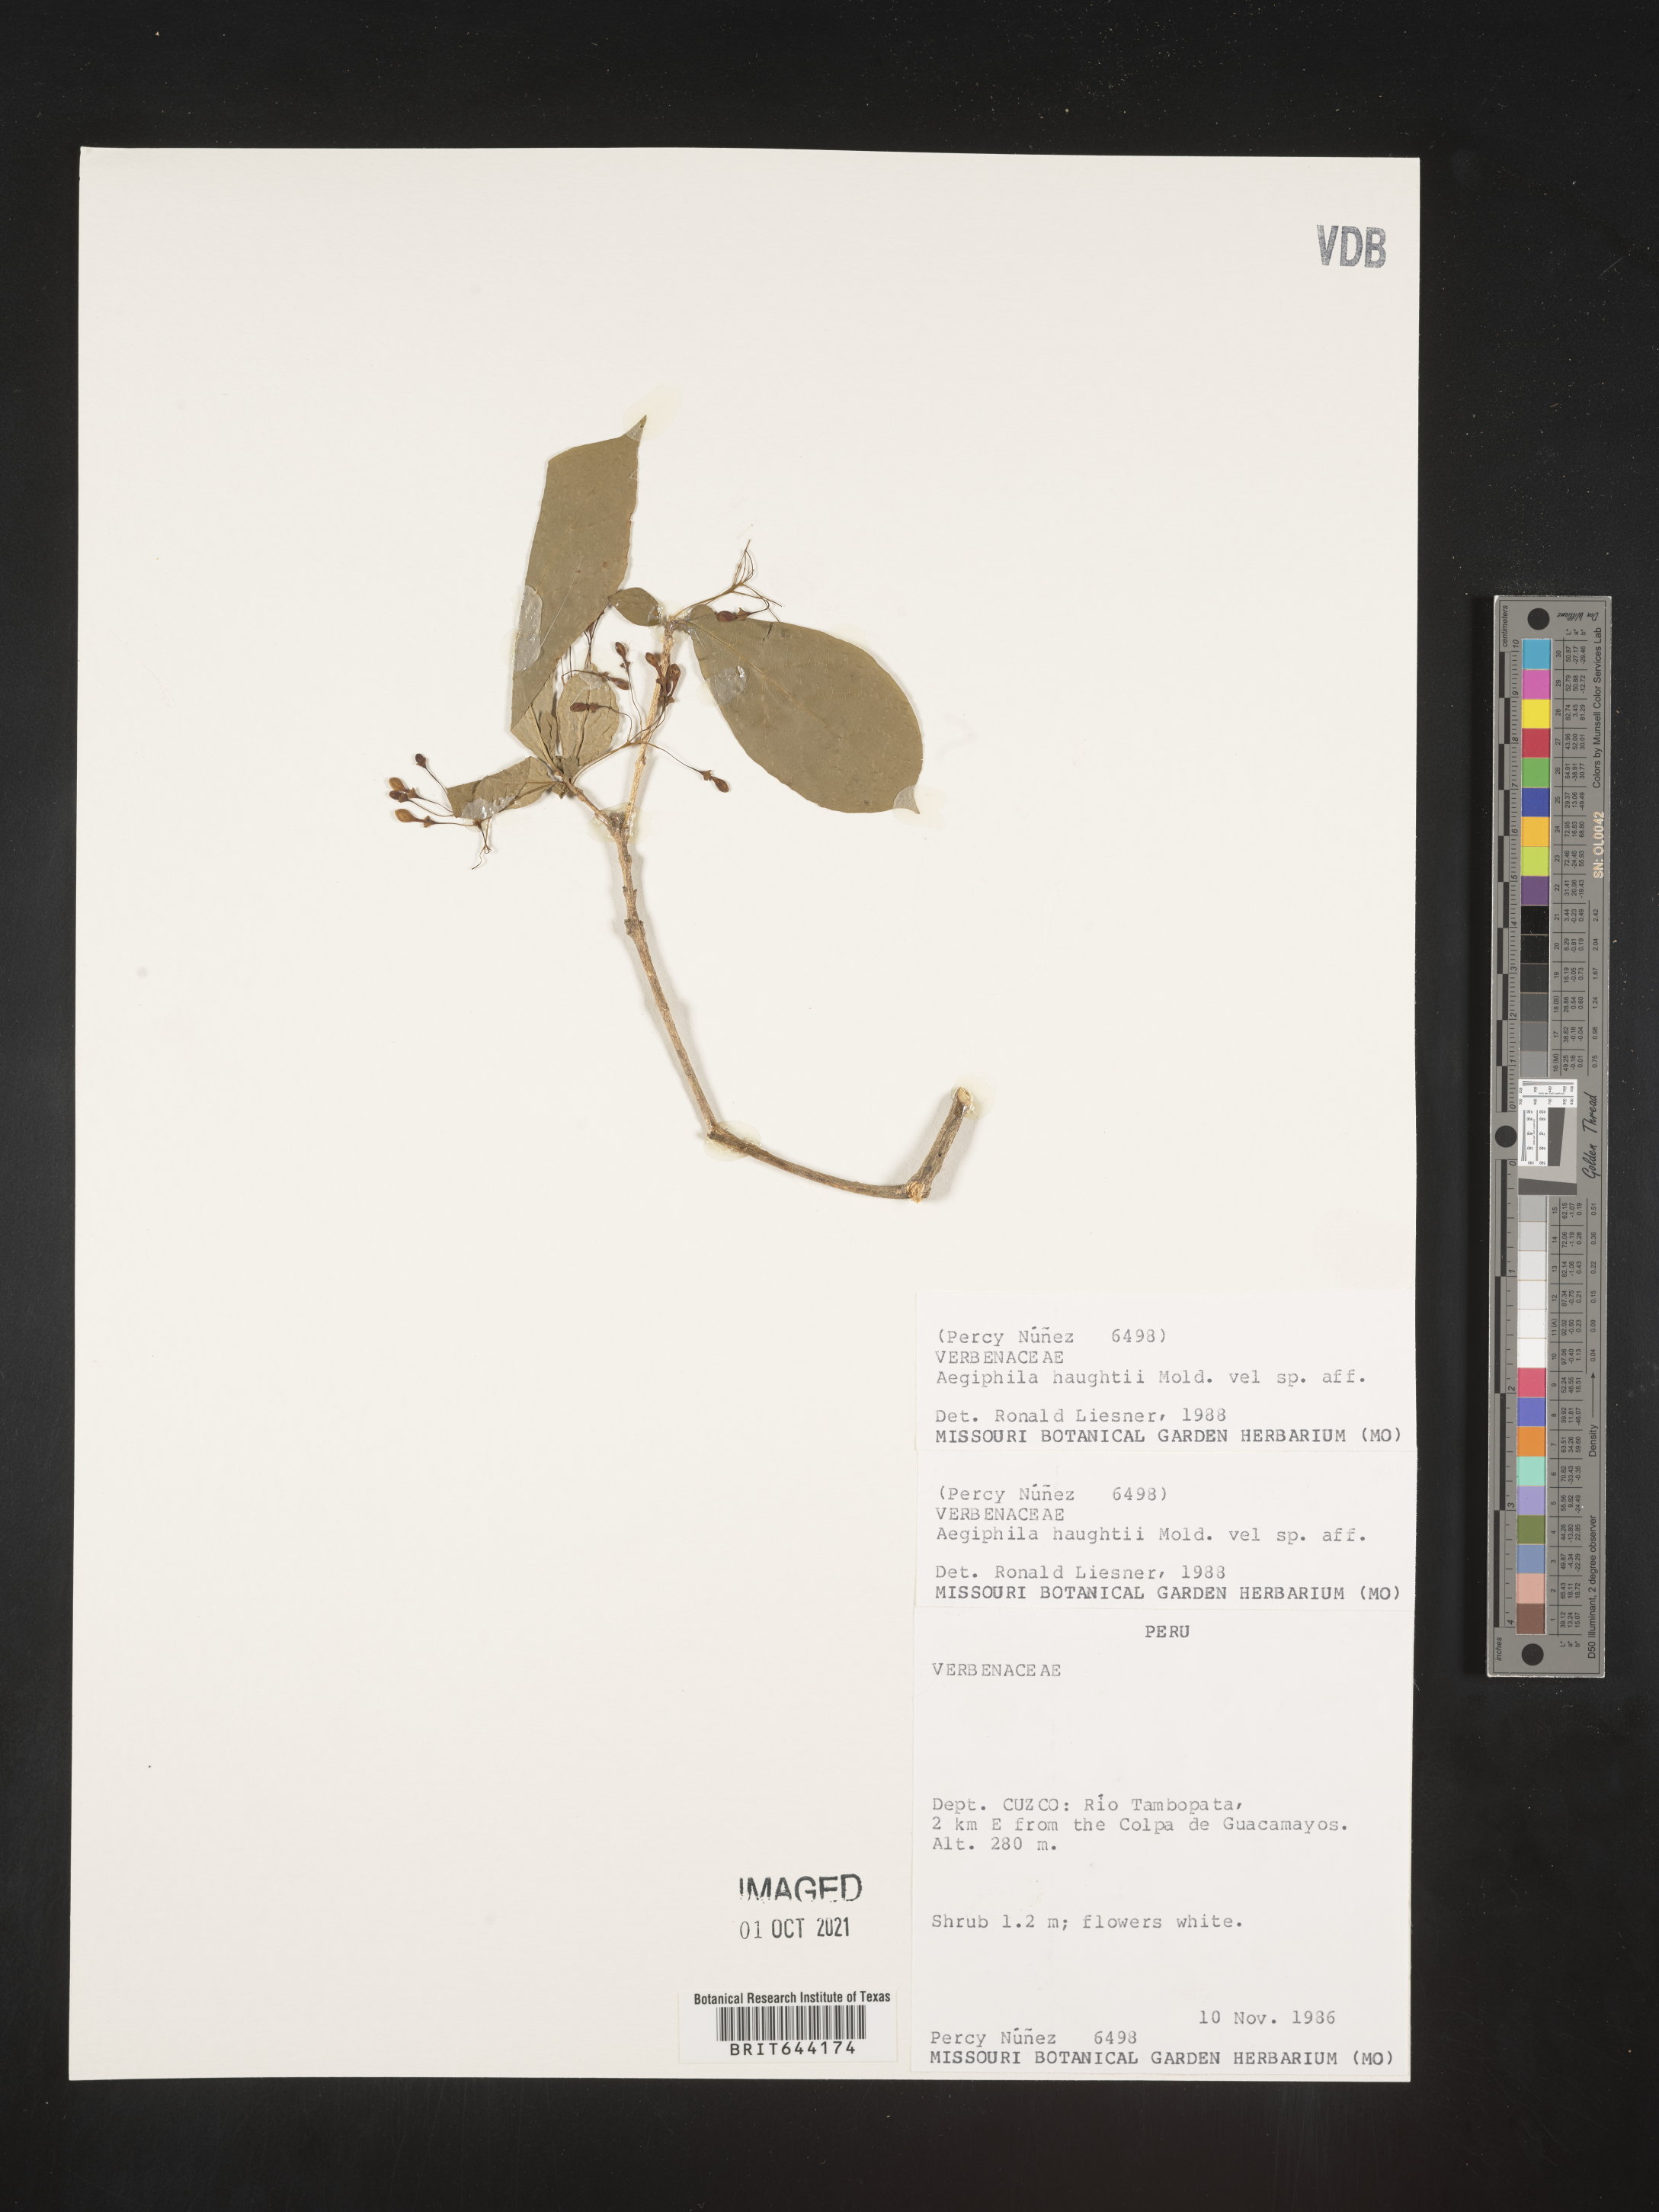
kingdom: Plantae
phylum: Tracheophyta
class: Magnoliopsida
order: Lamiales
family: Lamiaceae
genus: Aegiphila
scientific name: Aegiphila
